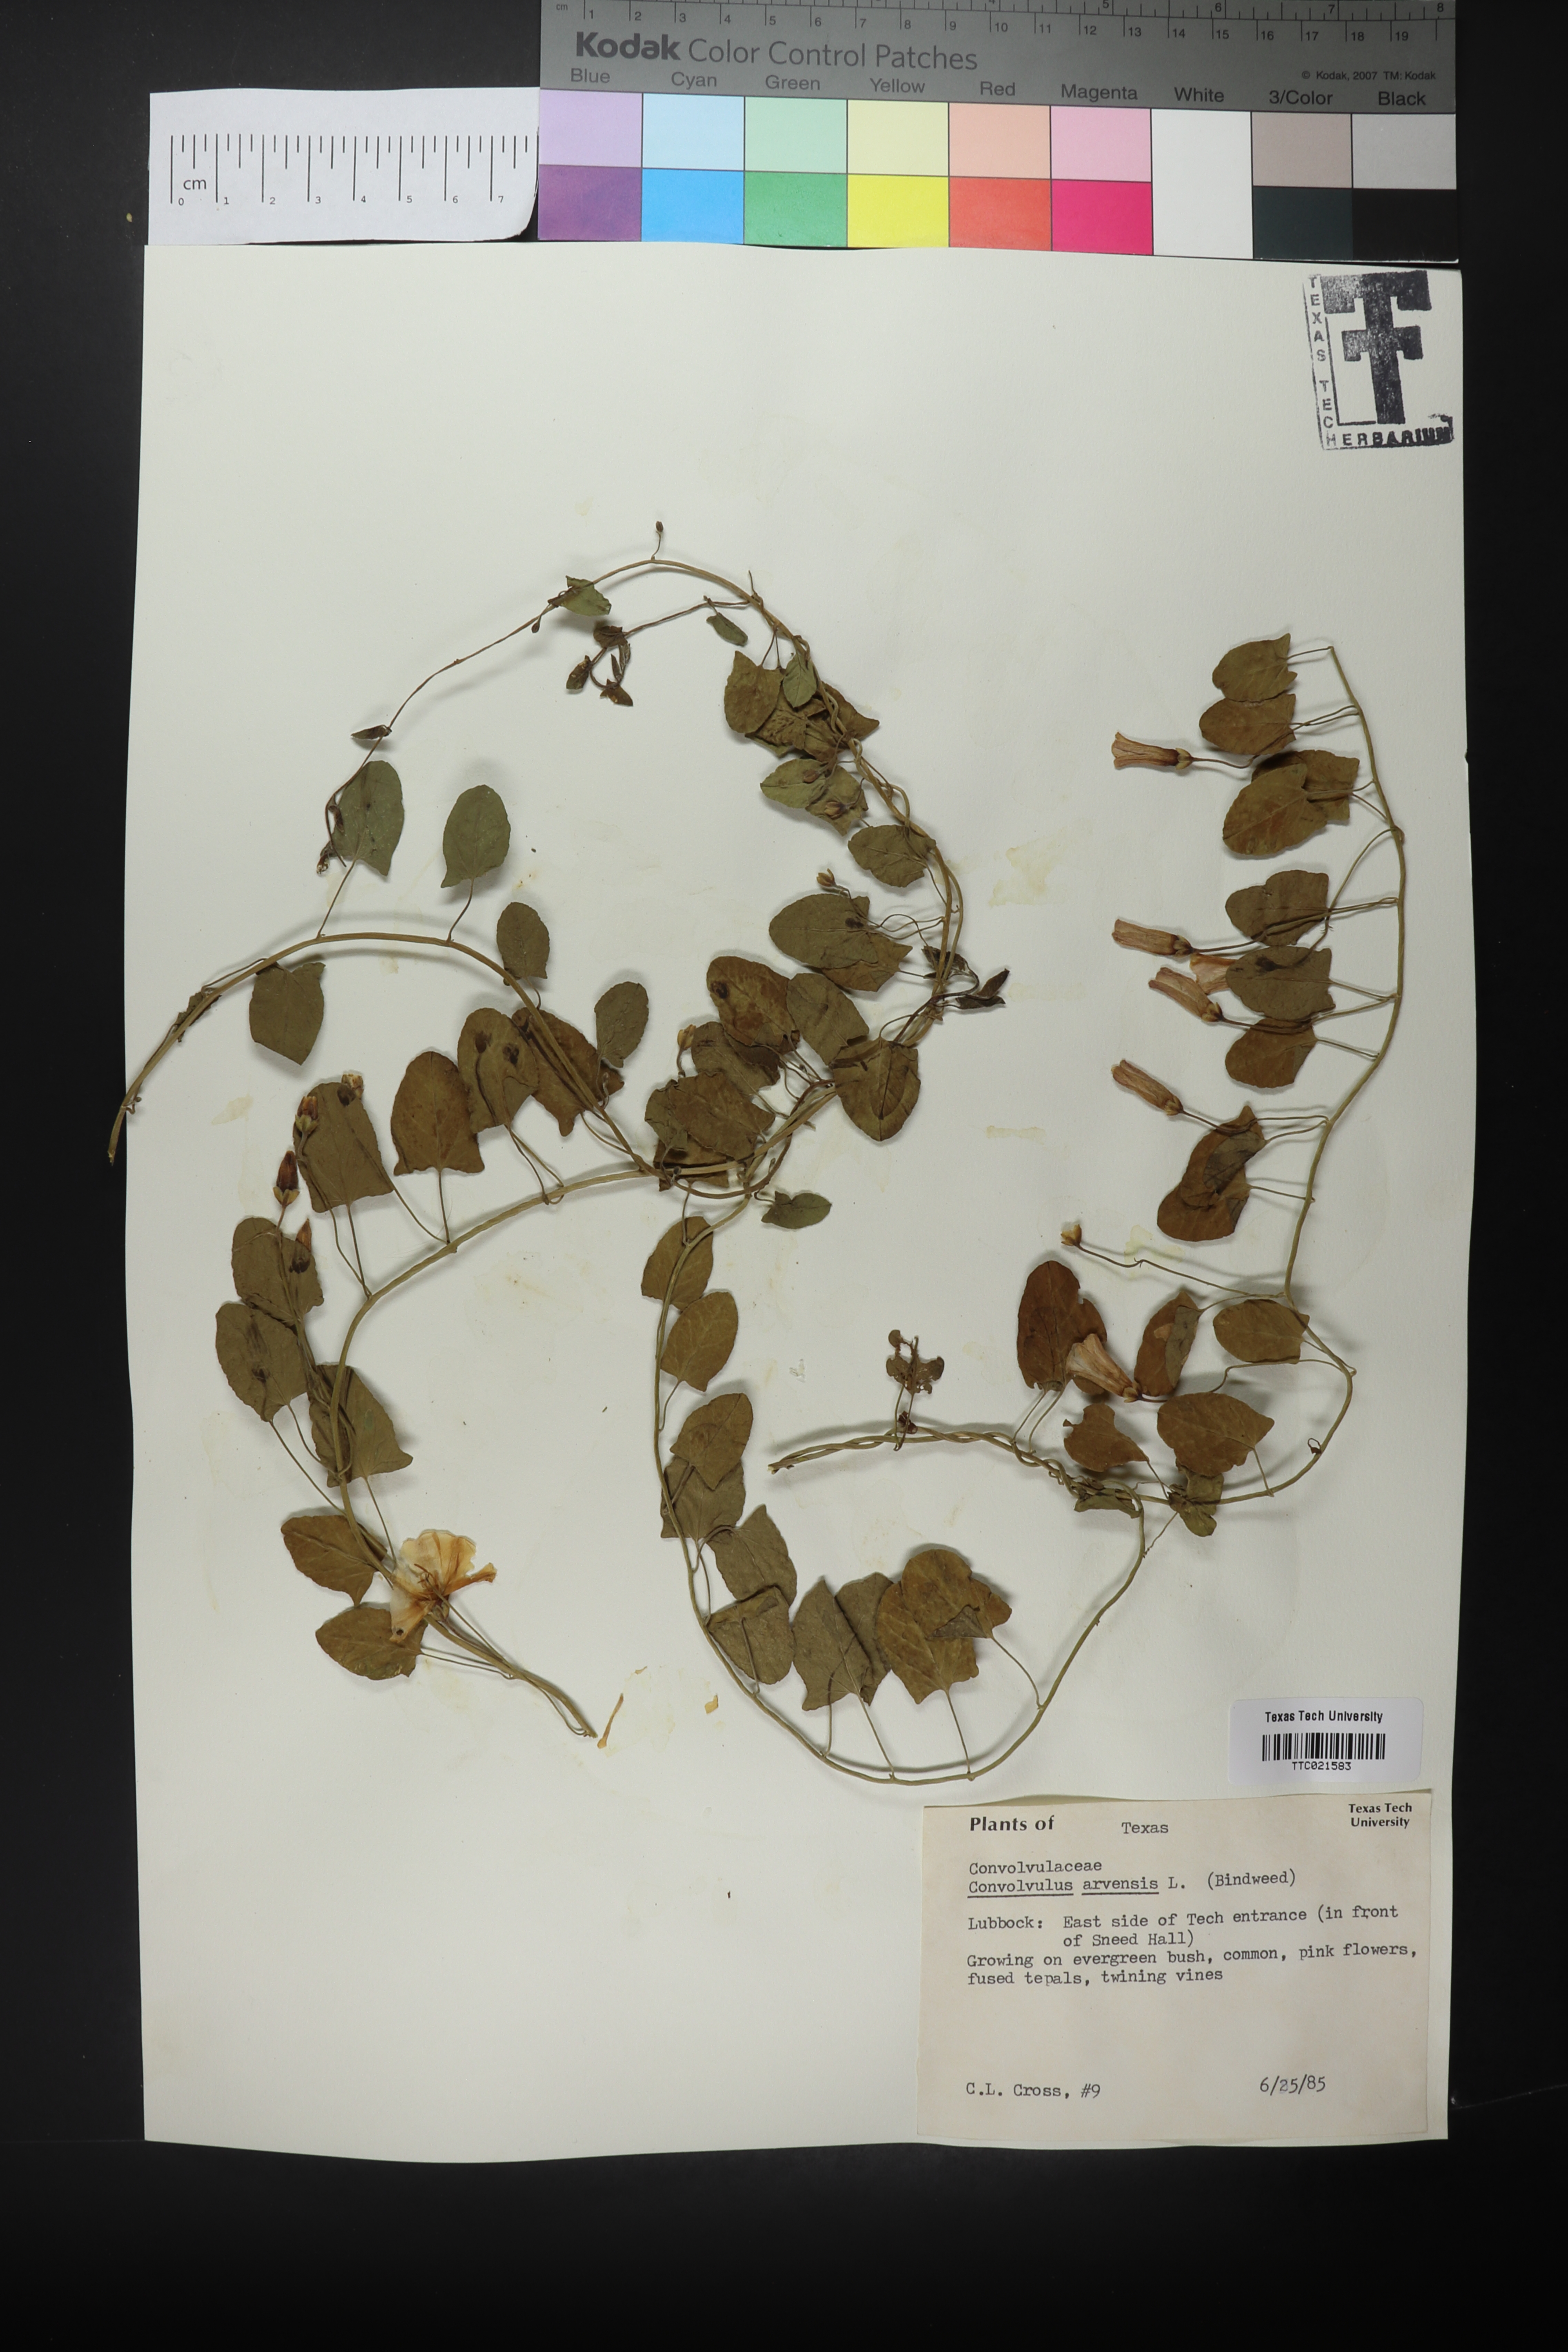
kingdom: Plantae
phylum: Tracheophyta
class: Magnoliopsida
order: Solanales
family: Convolvulaceae
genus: Convolvulus
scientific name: Convolvulus arvensis
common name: Field bindweed
